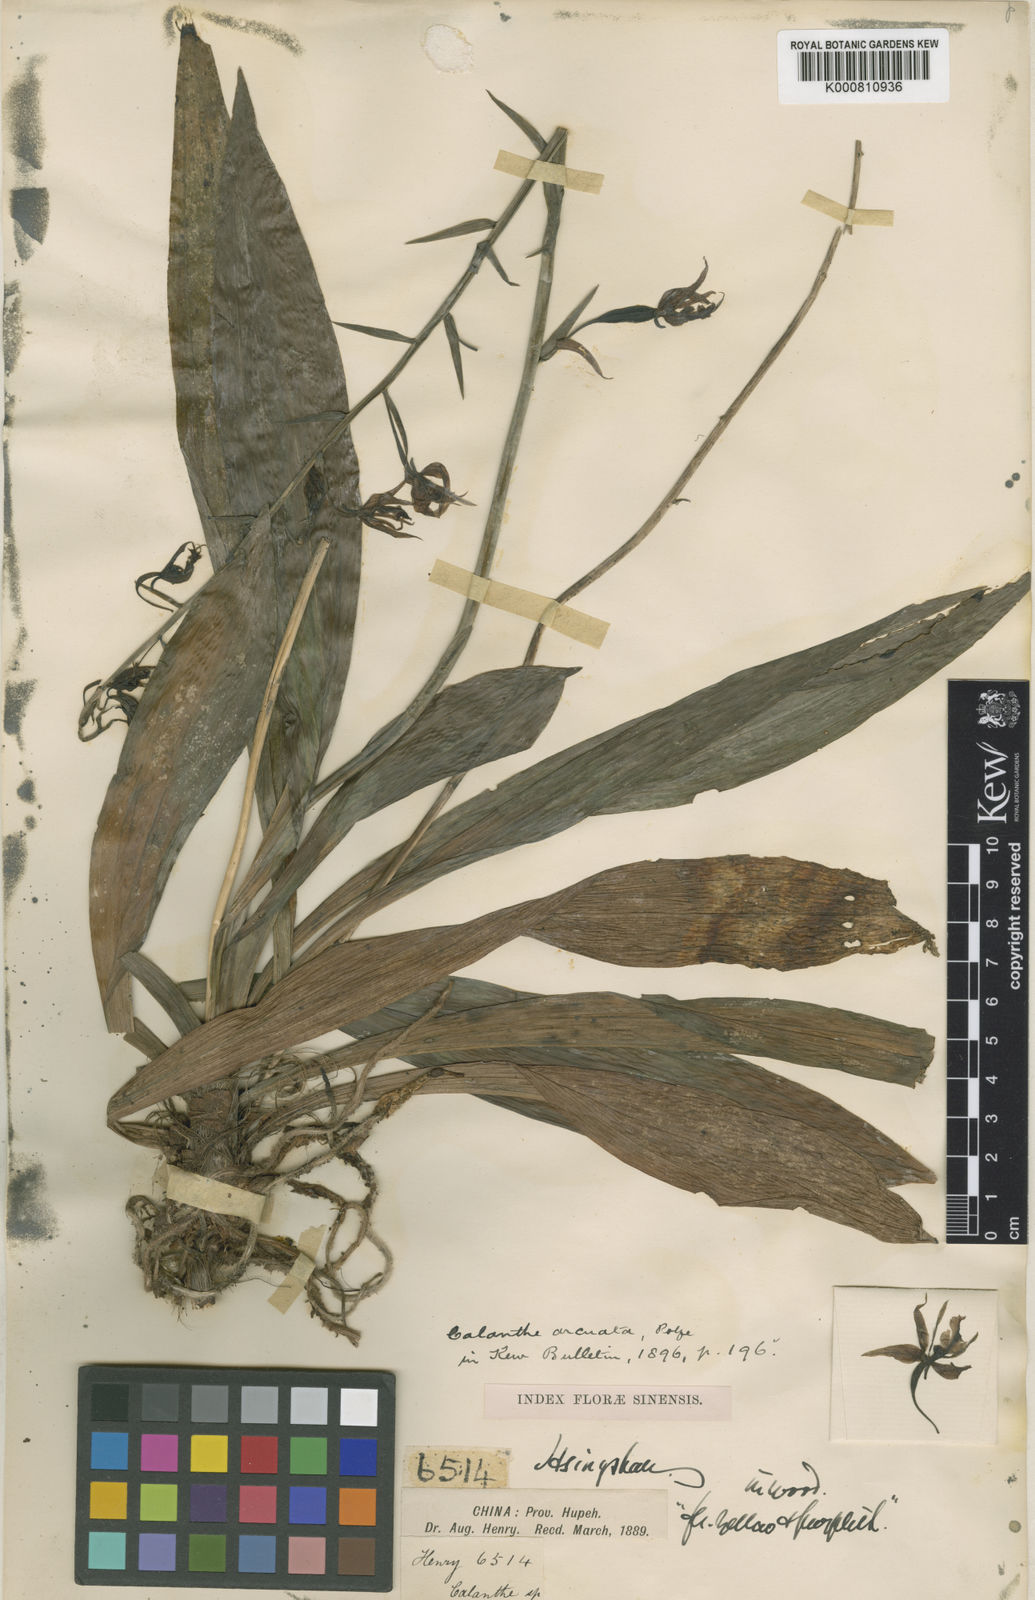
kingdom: Plantae
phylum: Tracheophyta
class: Liliopsida
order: Asparagales
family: Orchidaceae
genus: Calanthe
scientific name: Calanthe arcuata
